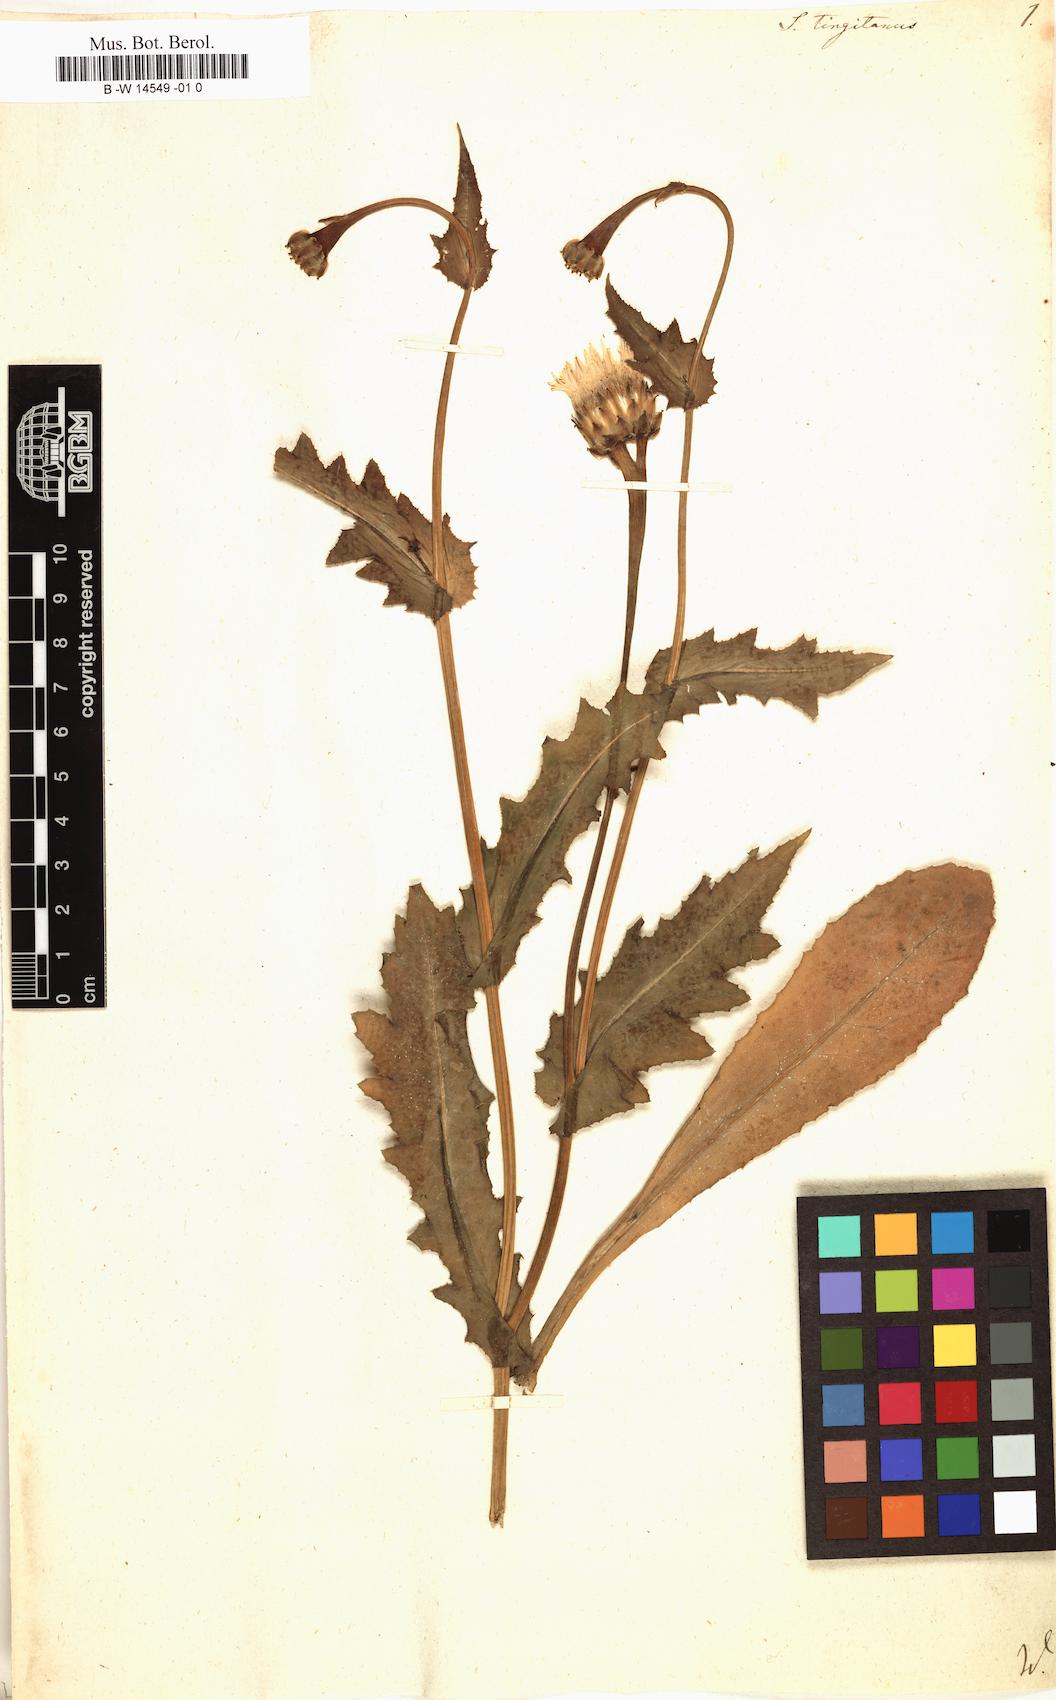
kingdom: Plantae
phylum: Tracheophyta
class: Magnoliopsida
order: Asterales
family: Asteraceae
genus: Reichardia
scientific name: Reichardia tingitana
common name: Reichardia
